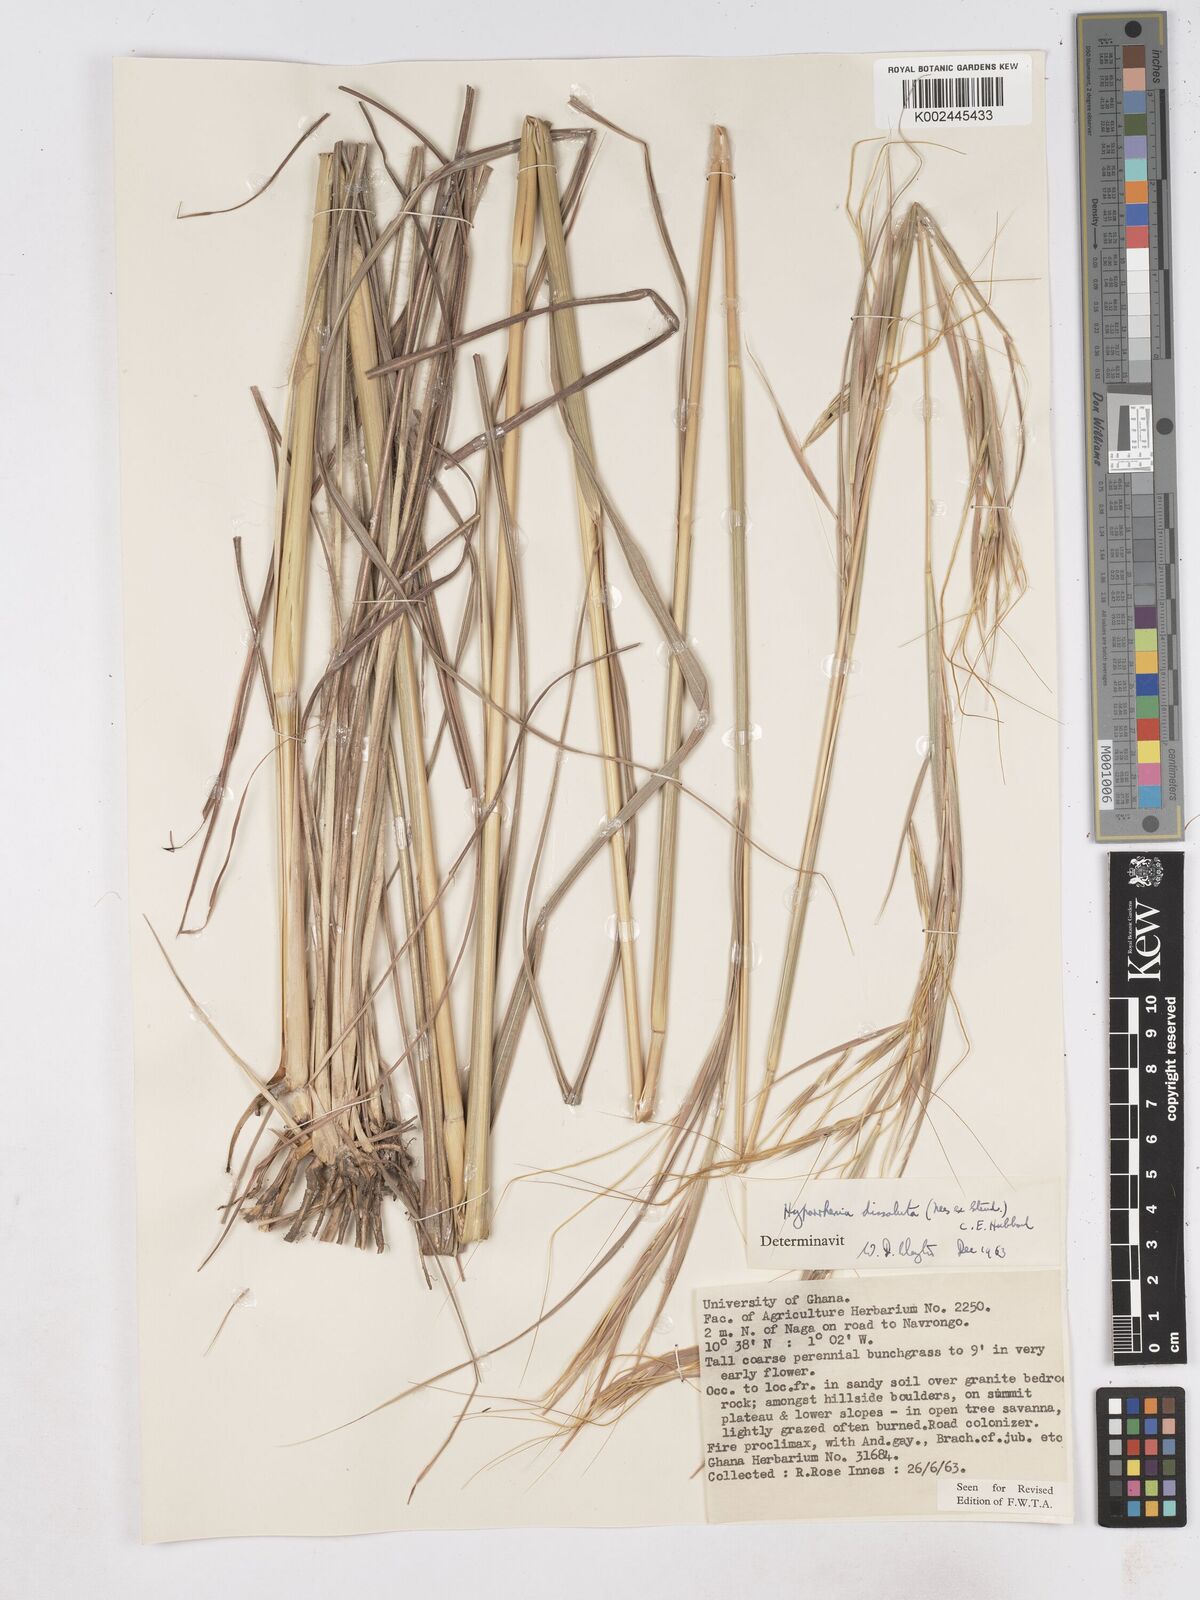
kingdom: Plantae
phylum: Tracheophyta
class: Liliopsida
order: Poales
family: Poaceae
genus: Hyperthelia
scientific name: Hyperthelia dissoluta
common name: Yellow thatching grass
